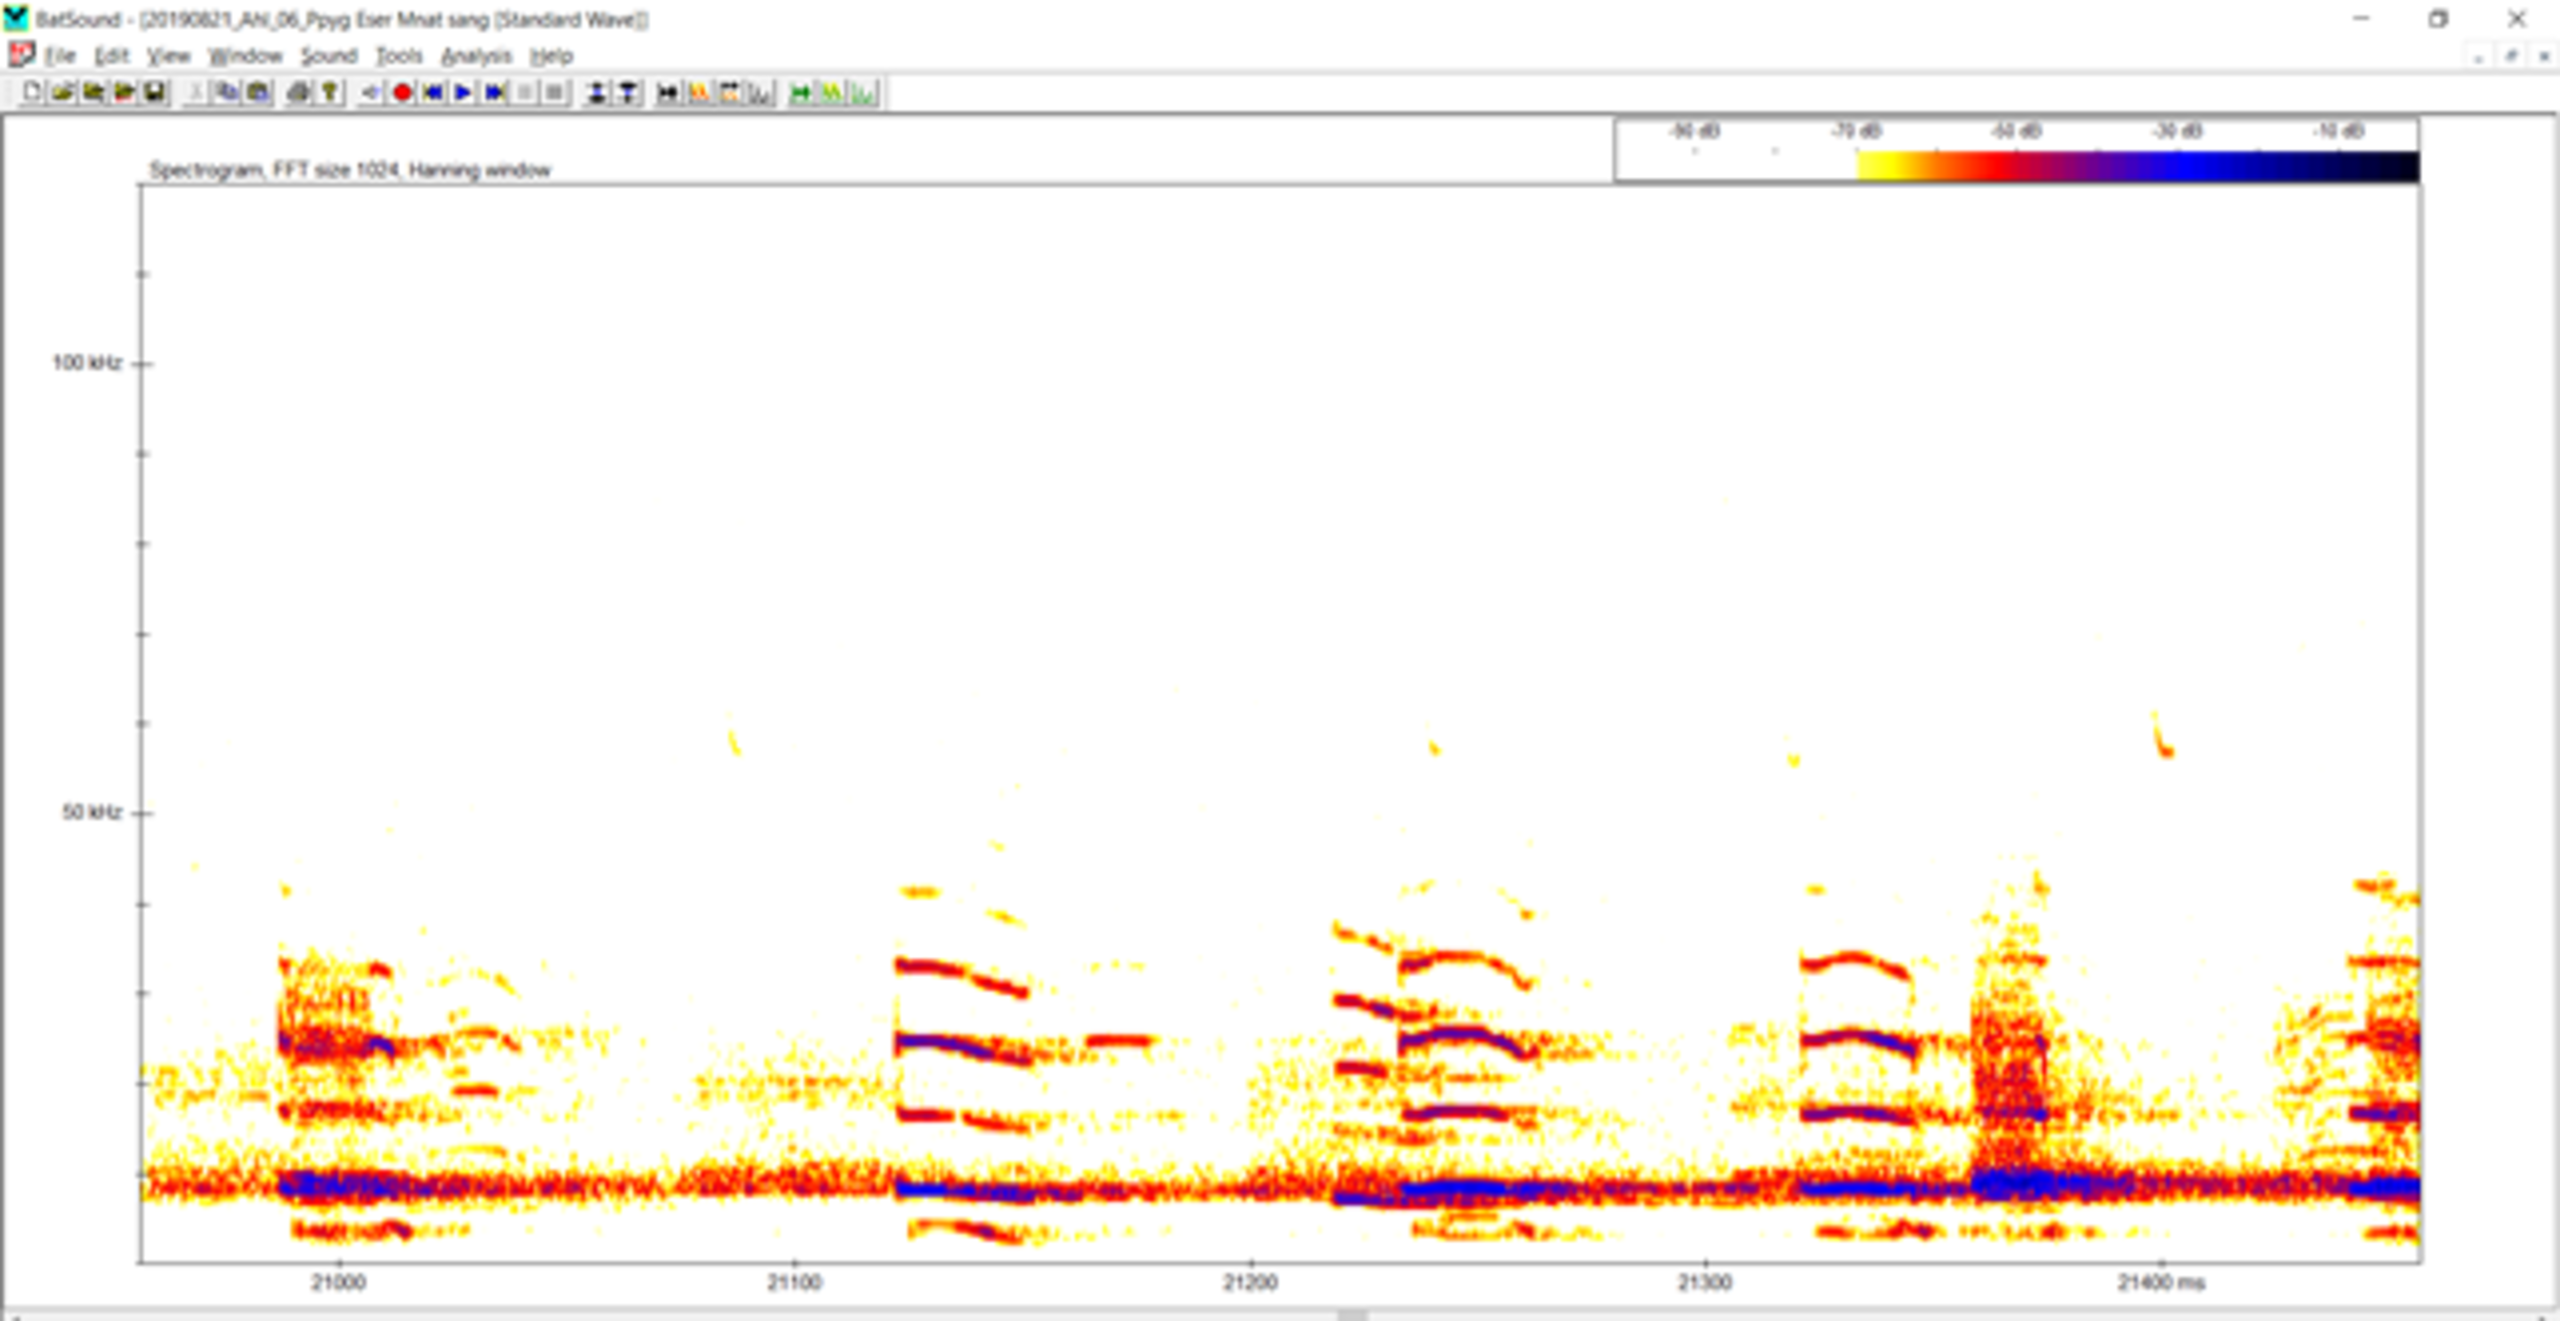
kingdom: Animalia
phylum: Chordata
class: Mammalia
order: Chiroptera
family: Vespertilionidae
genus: Nyctalus
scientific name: Nyctalus noctula
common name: Brunflagermus
